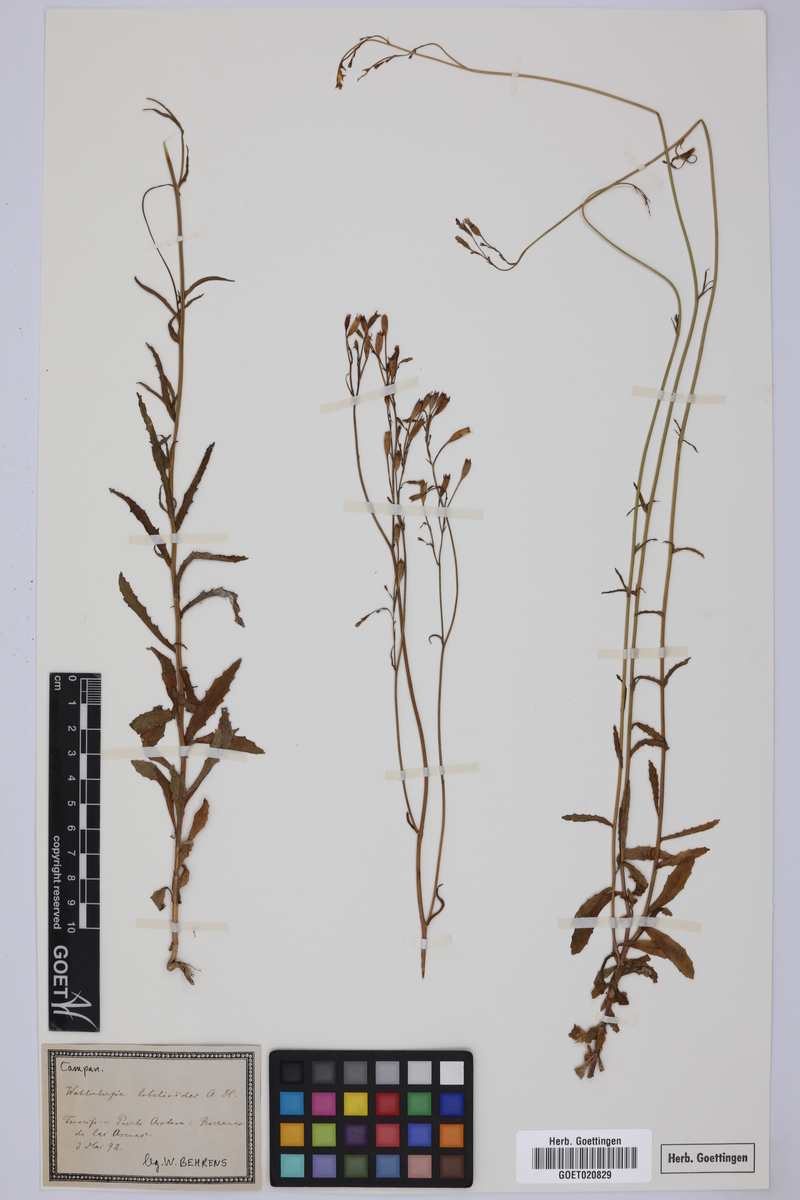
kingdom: Plantae
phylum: Tracheophyta
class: Magnoliopsida
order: Asterales
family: Campanulaceae
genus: Wahlenbergia
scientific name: Wahlenbergia lobelioides
